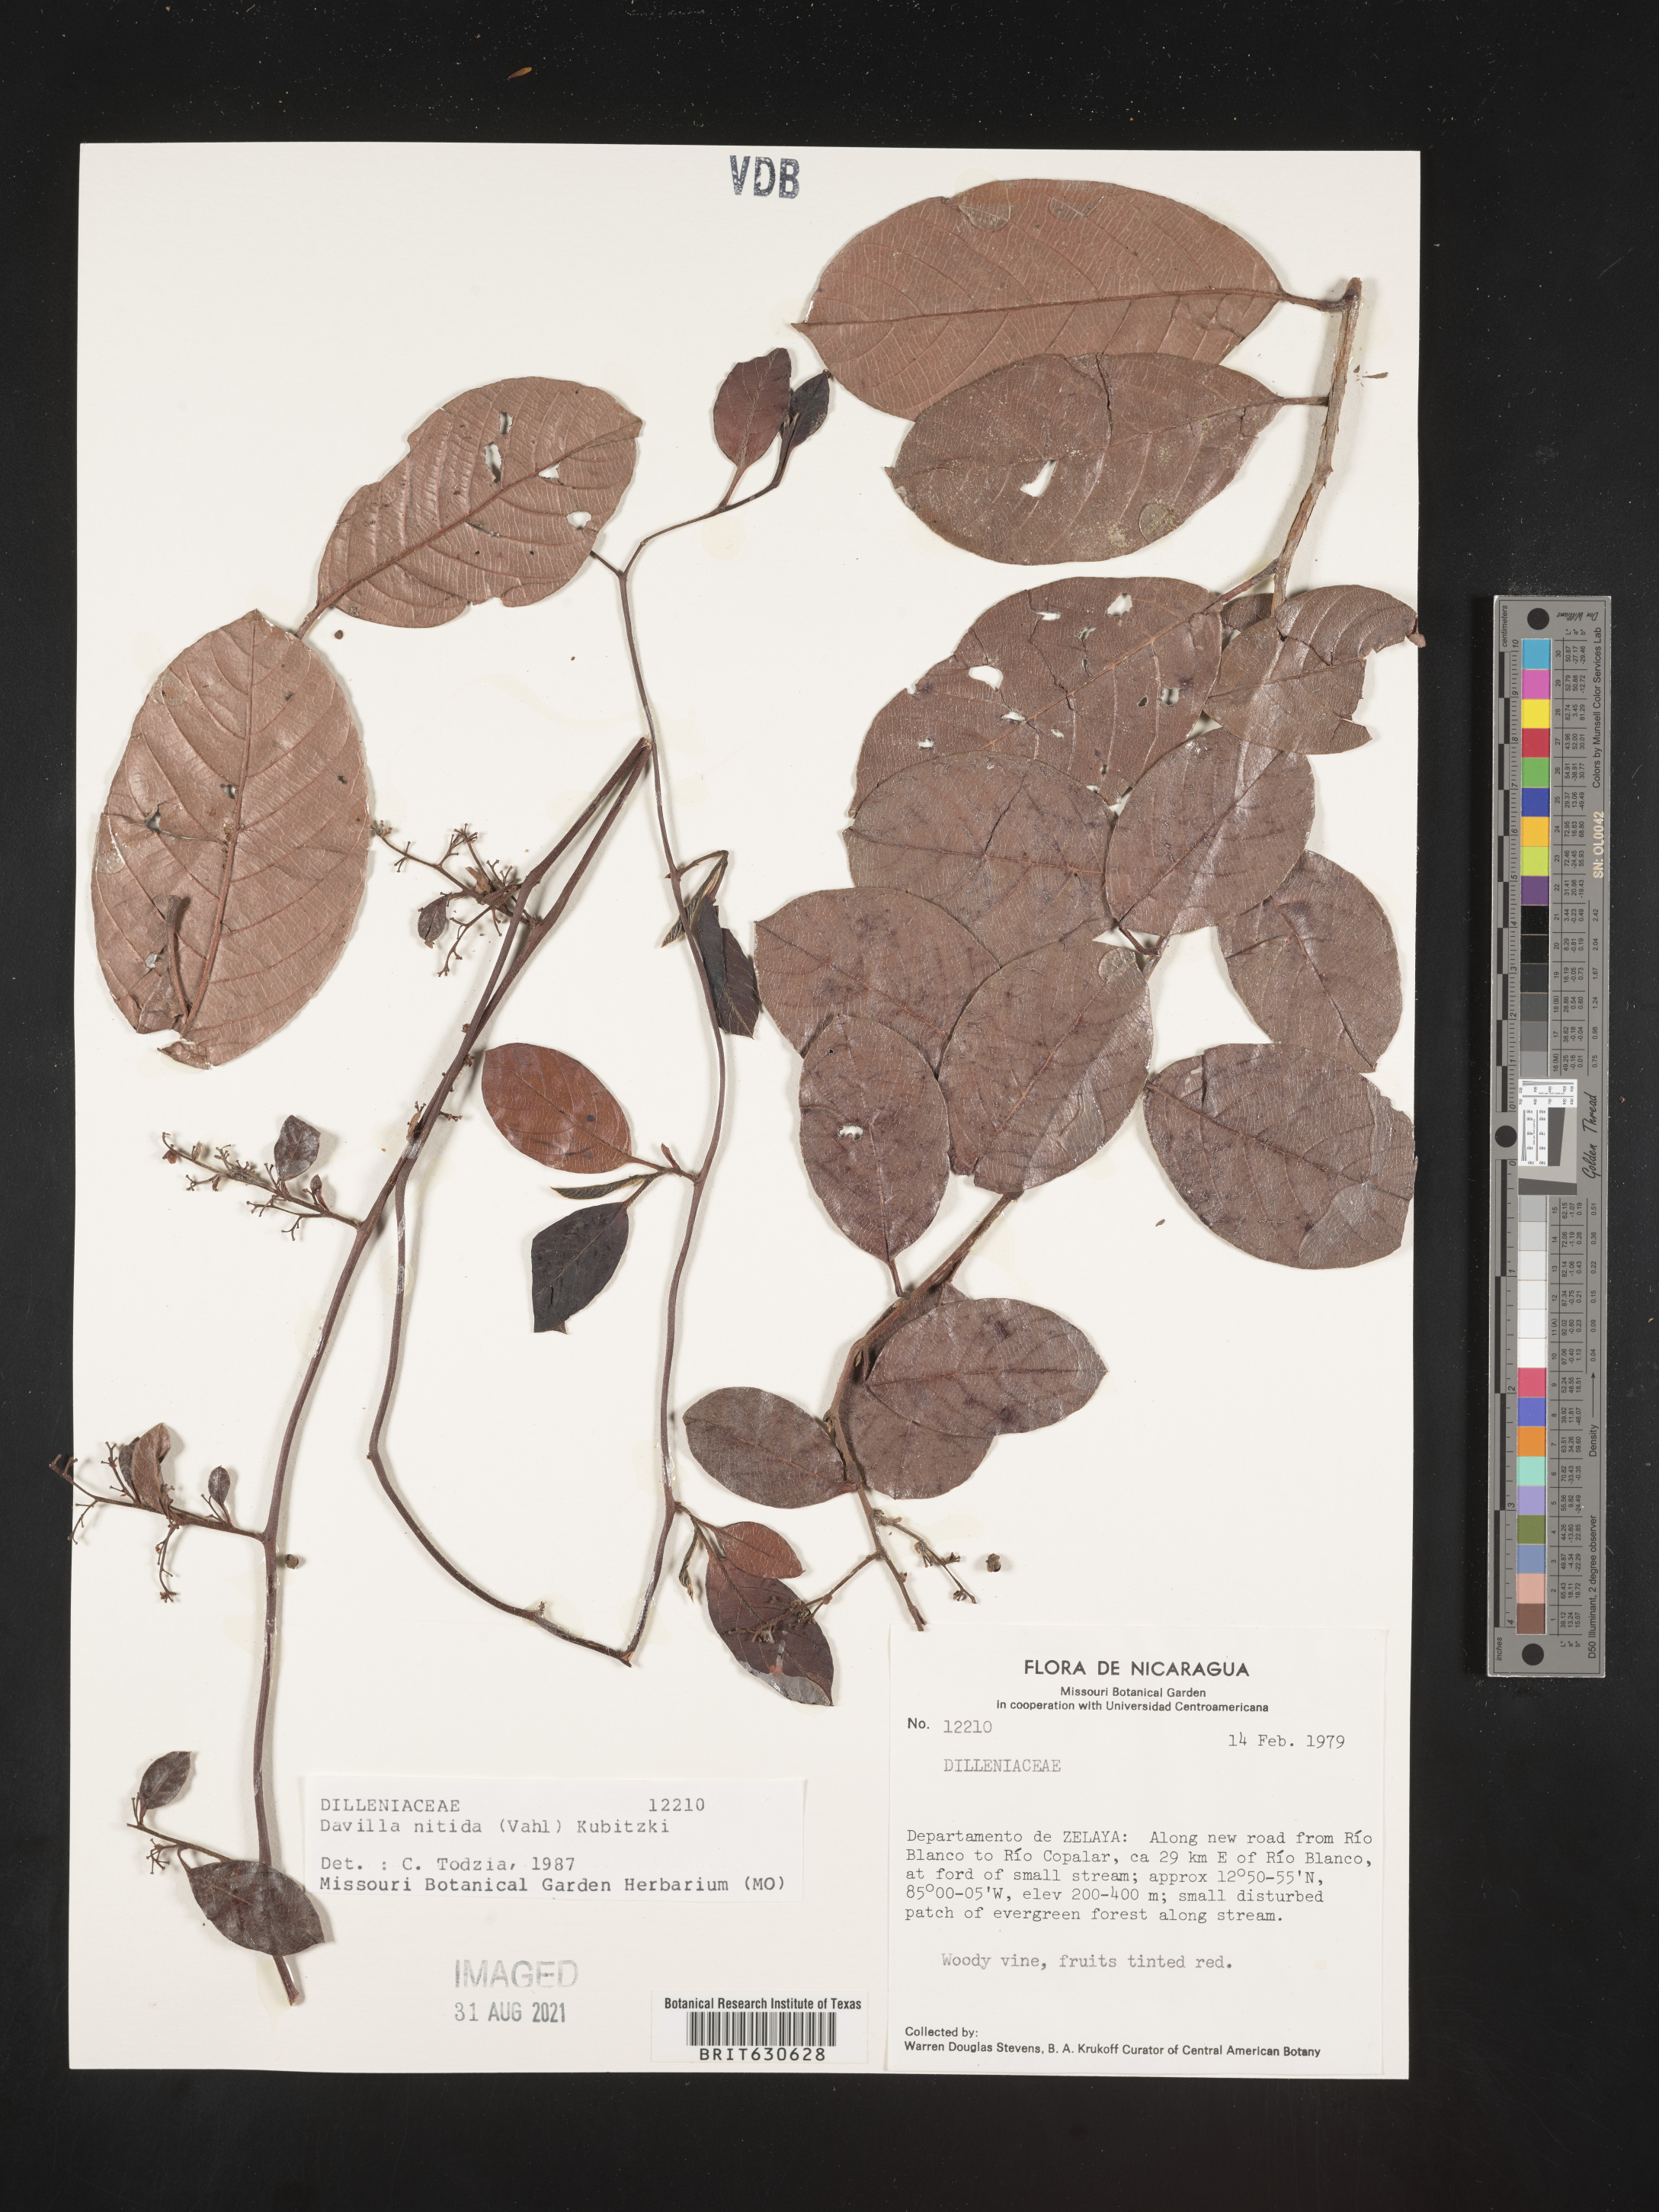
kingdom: Plantae
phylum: Tracheophyta
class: Magnoliopsida
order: Dilleniales
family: Dilleniaceae
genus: Davilla
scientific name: Davilla
